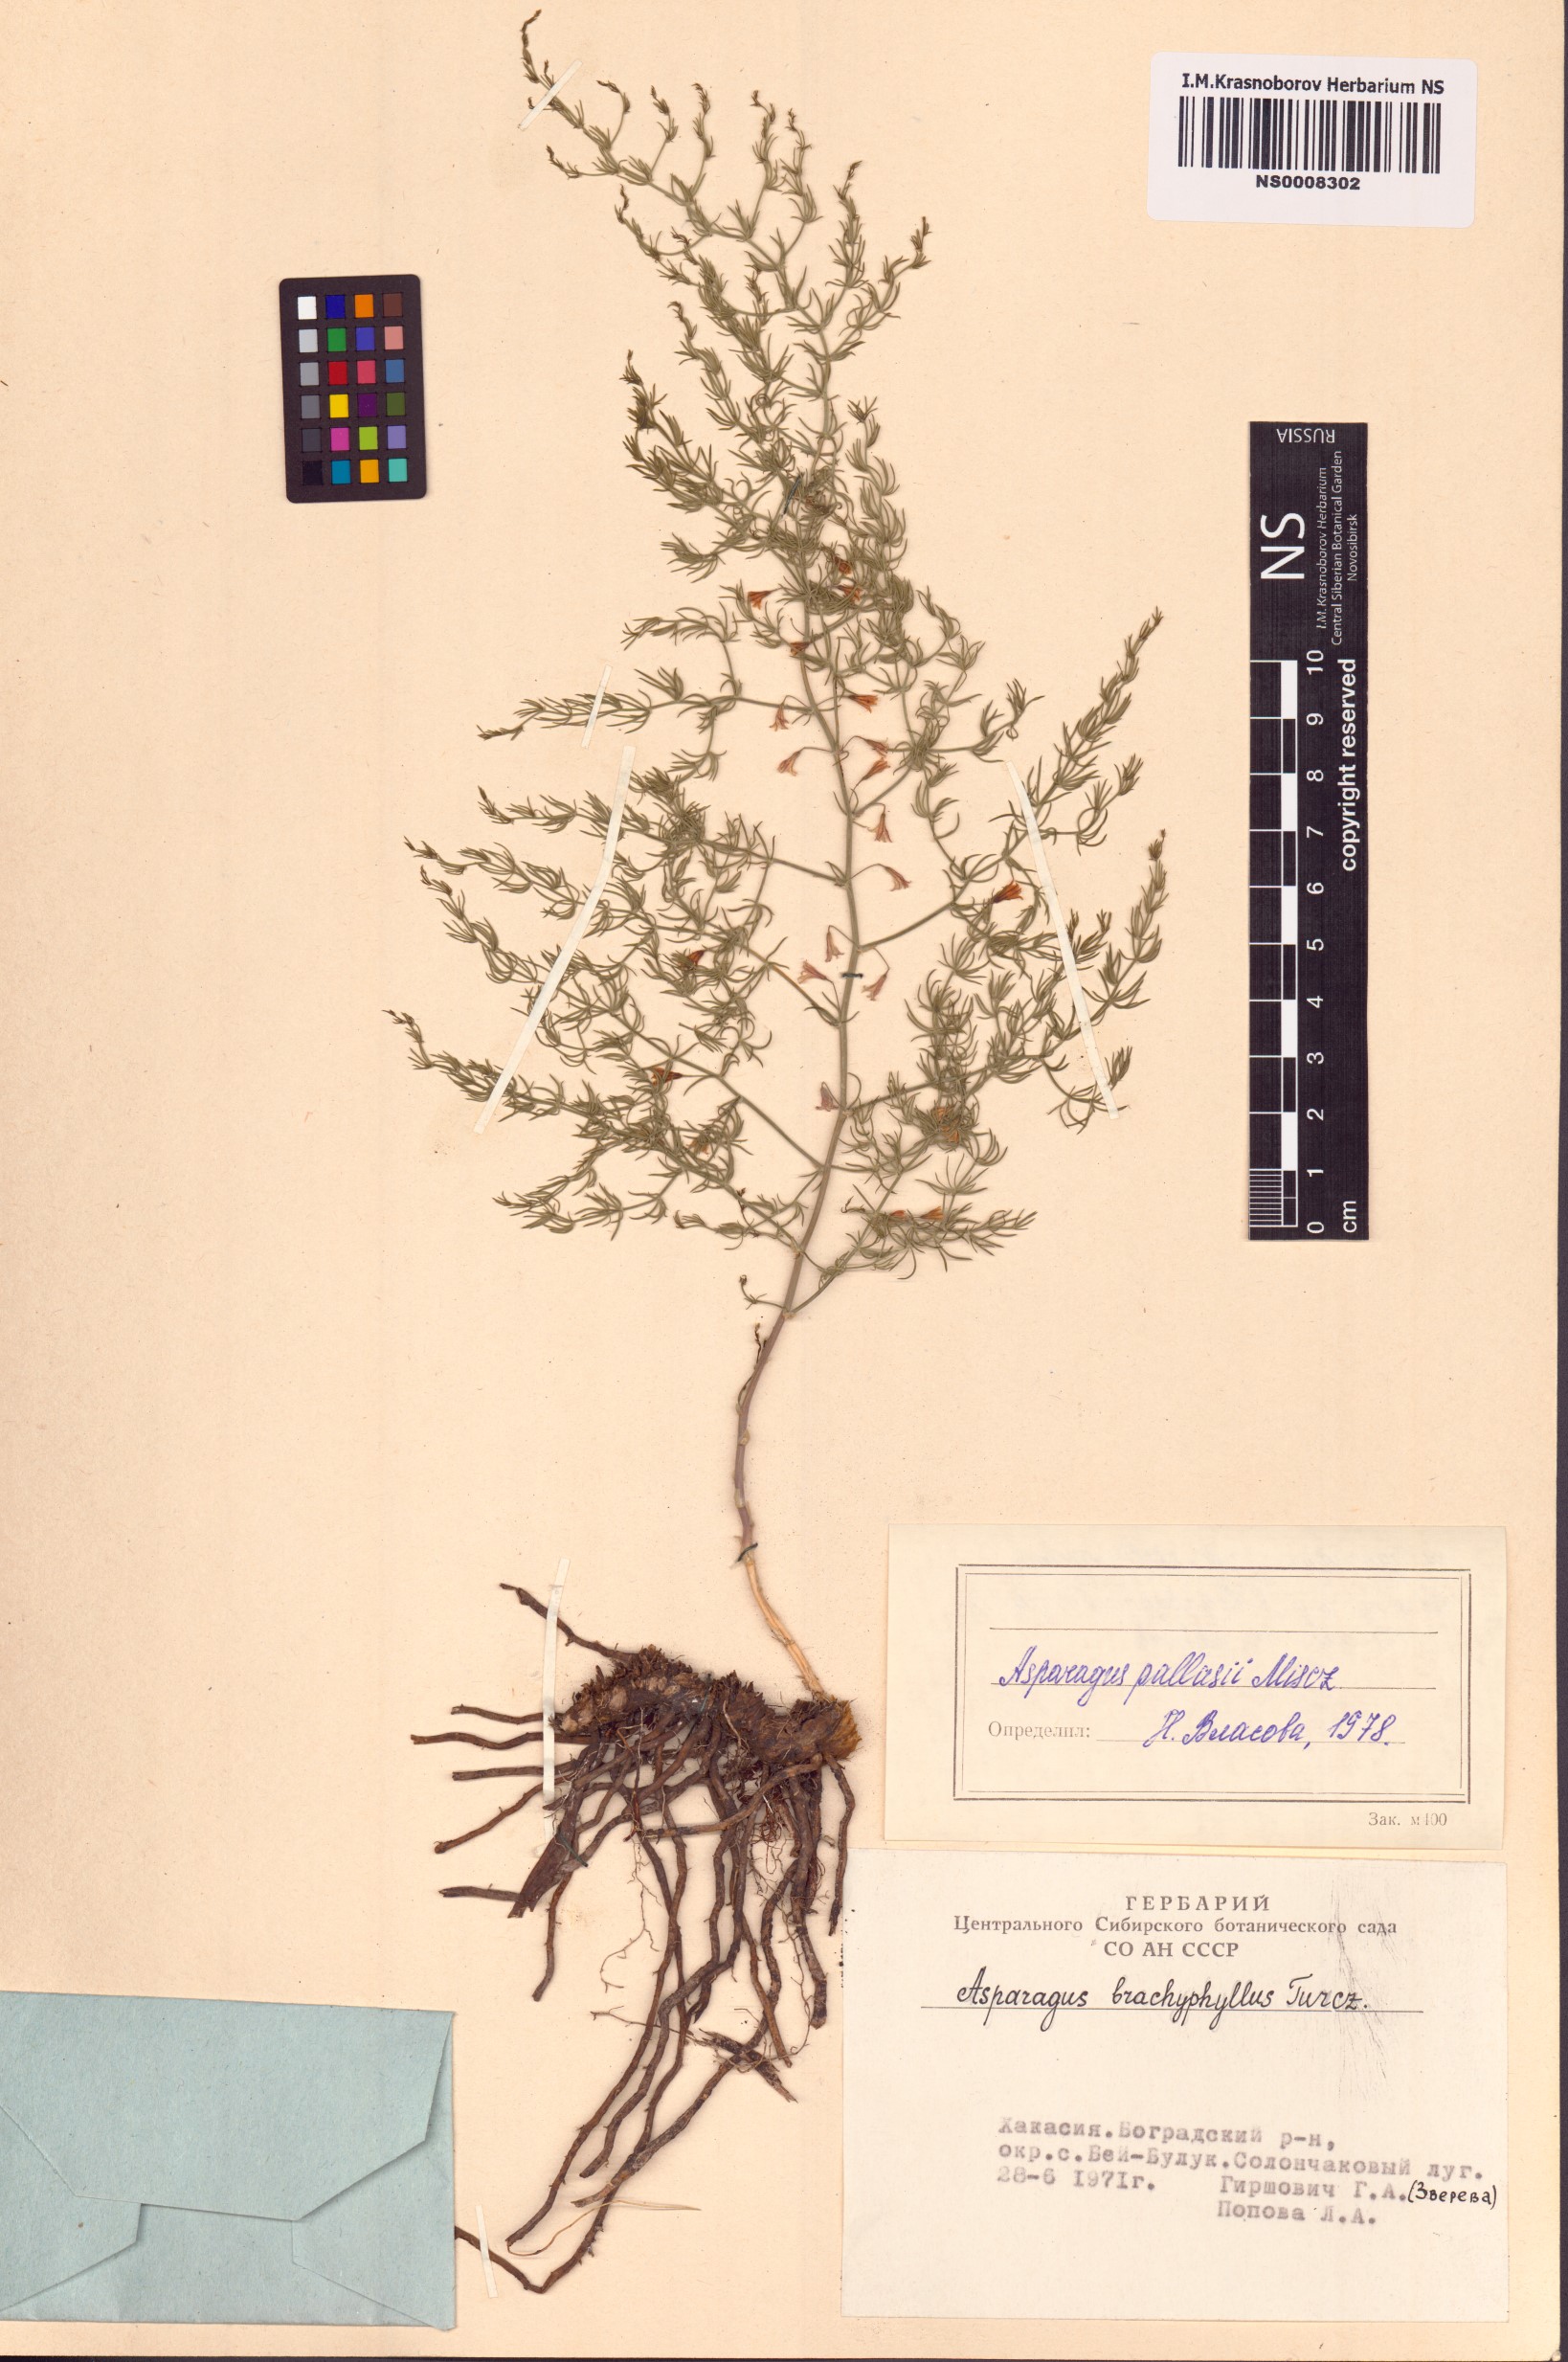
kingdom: Plantae
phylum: Tracheophyta
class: Liliopsida
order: Asparagales
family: Asparagaceae
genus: Asparagus
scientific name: Asparagus brachyphyllus
